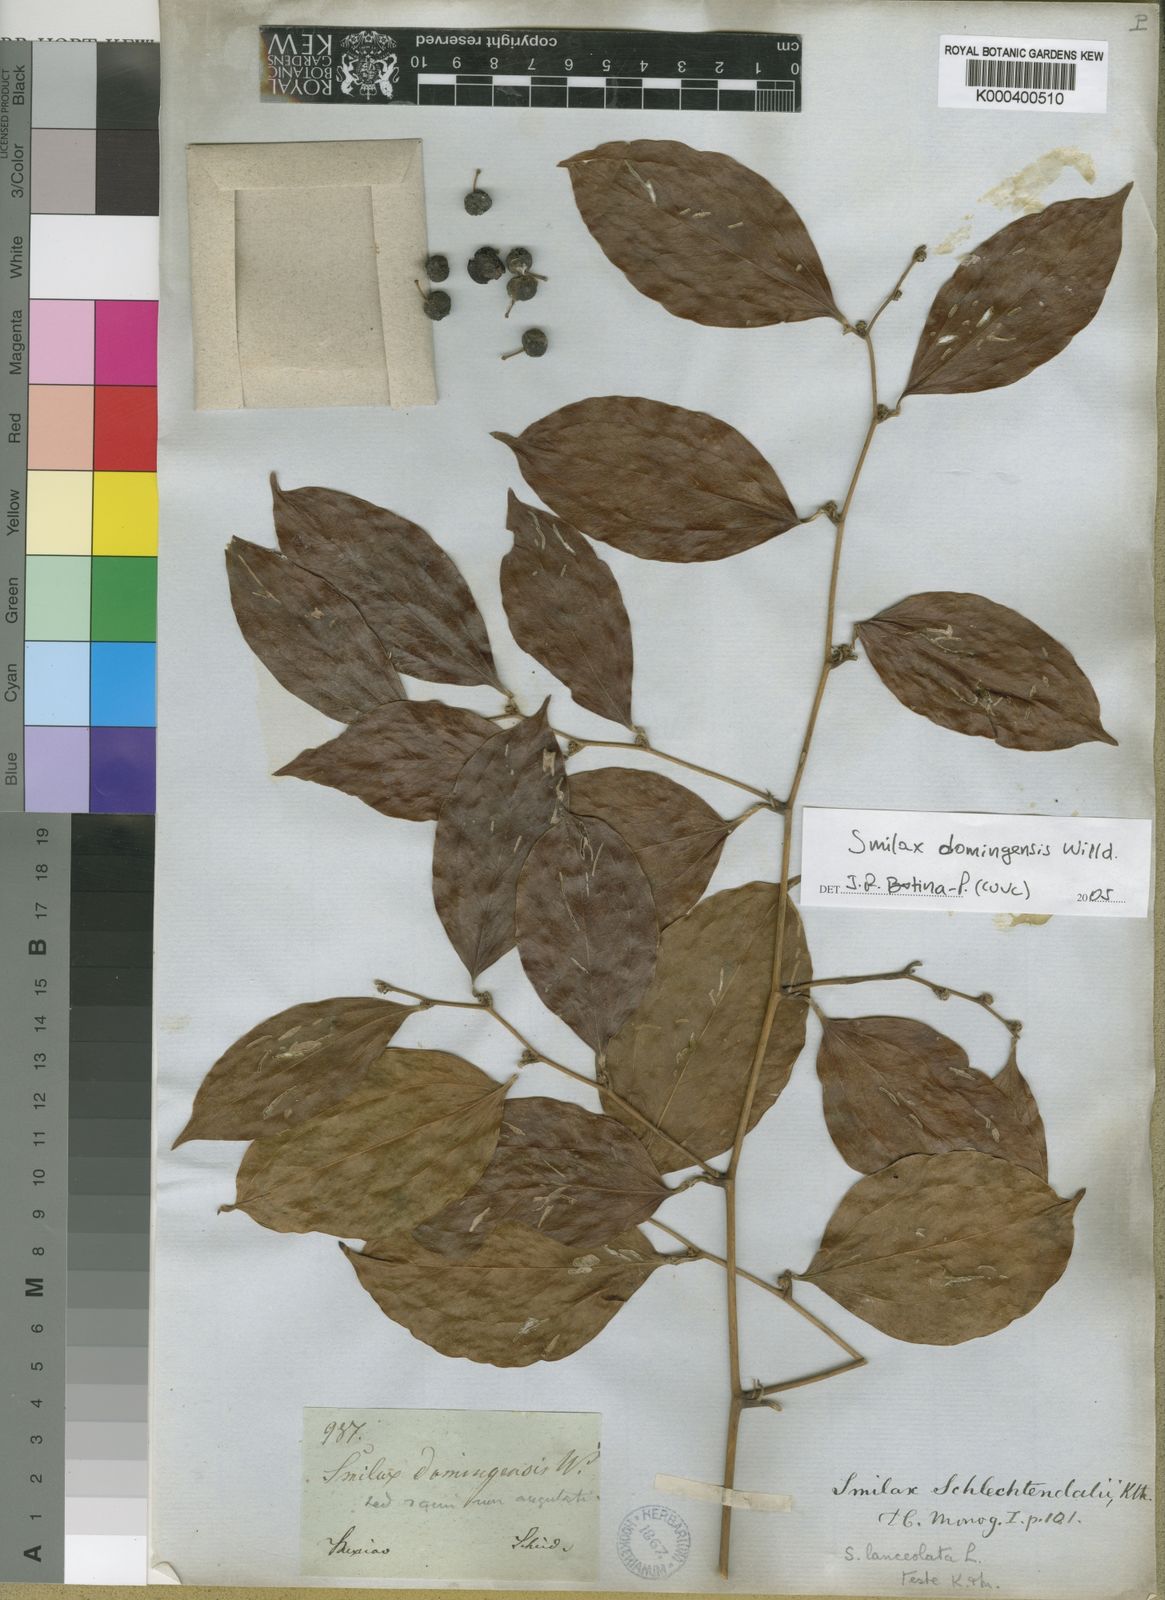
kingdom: Plantae
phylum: Tracheophyta
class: Liliopsida
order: Liliales
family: Smilacaceae
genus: Smilax
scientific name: Smilax domingensis
